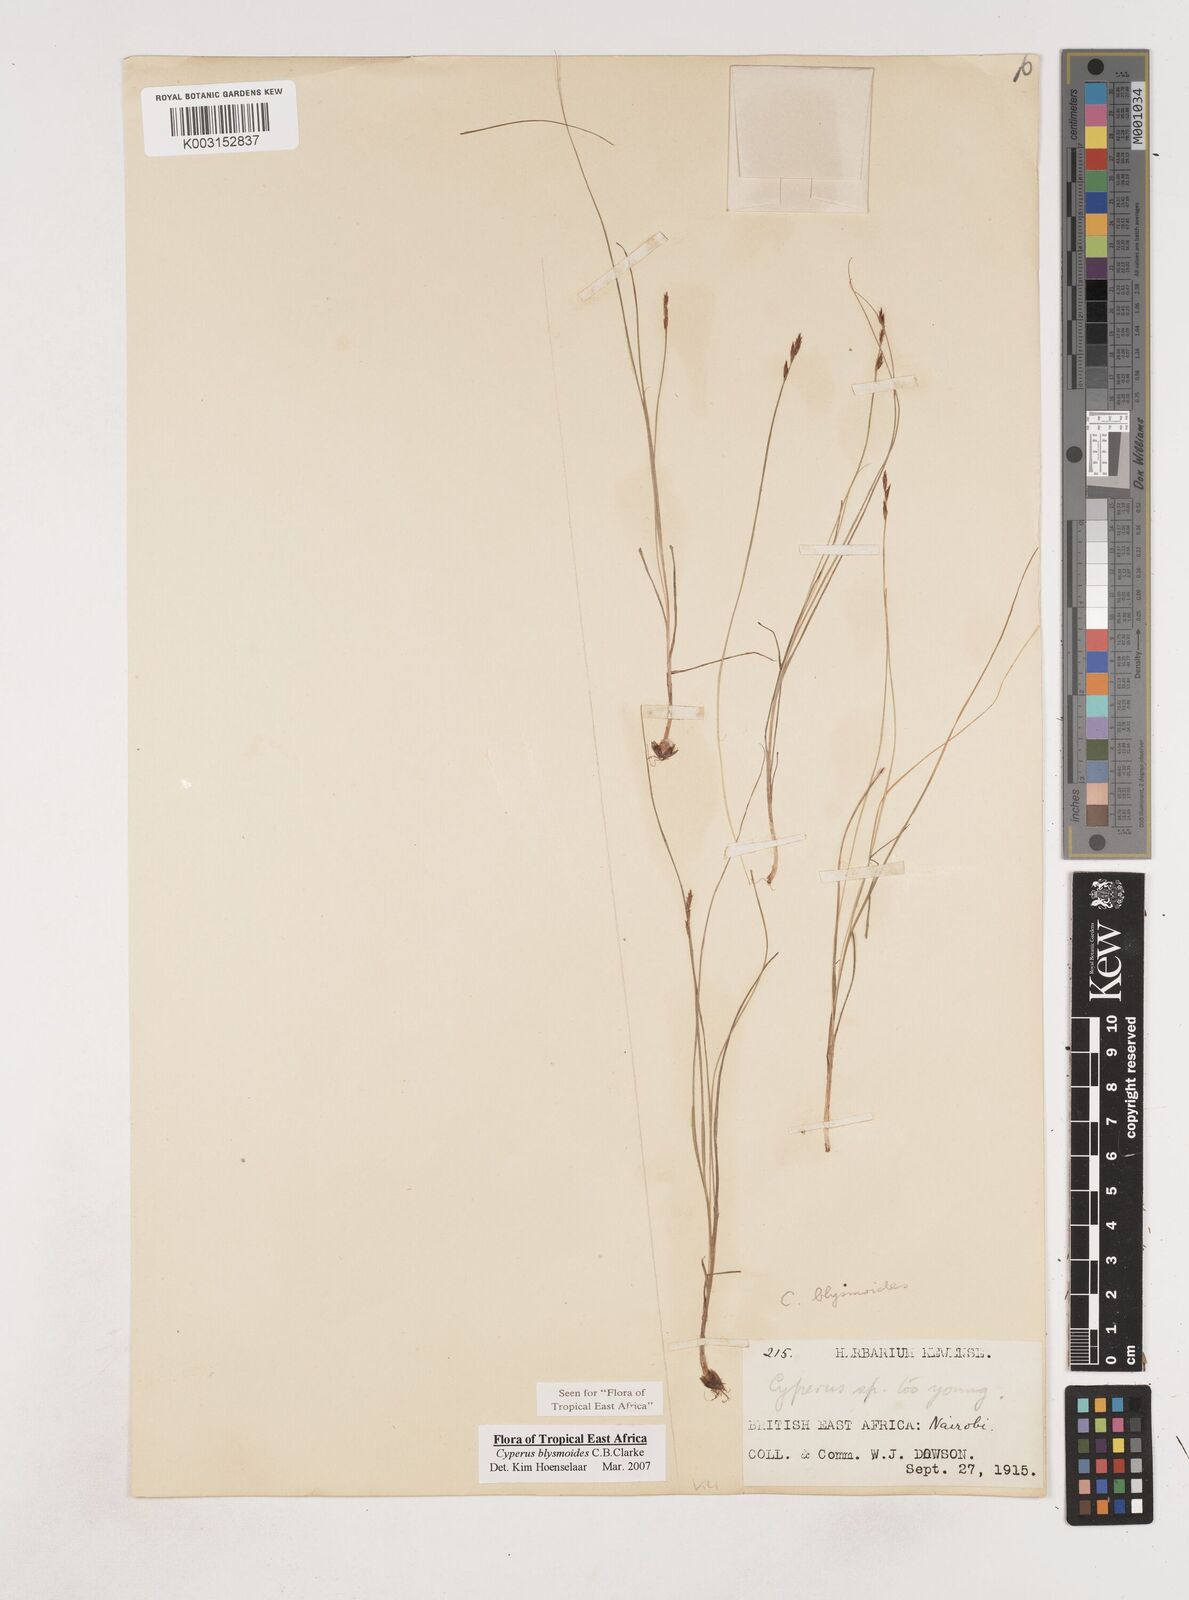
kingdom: Plantae
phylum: Tracheophyta
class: Liliopsida
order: Poales
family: Cyperaceae
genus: Cyperus
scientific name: Cyperus blysmoides
